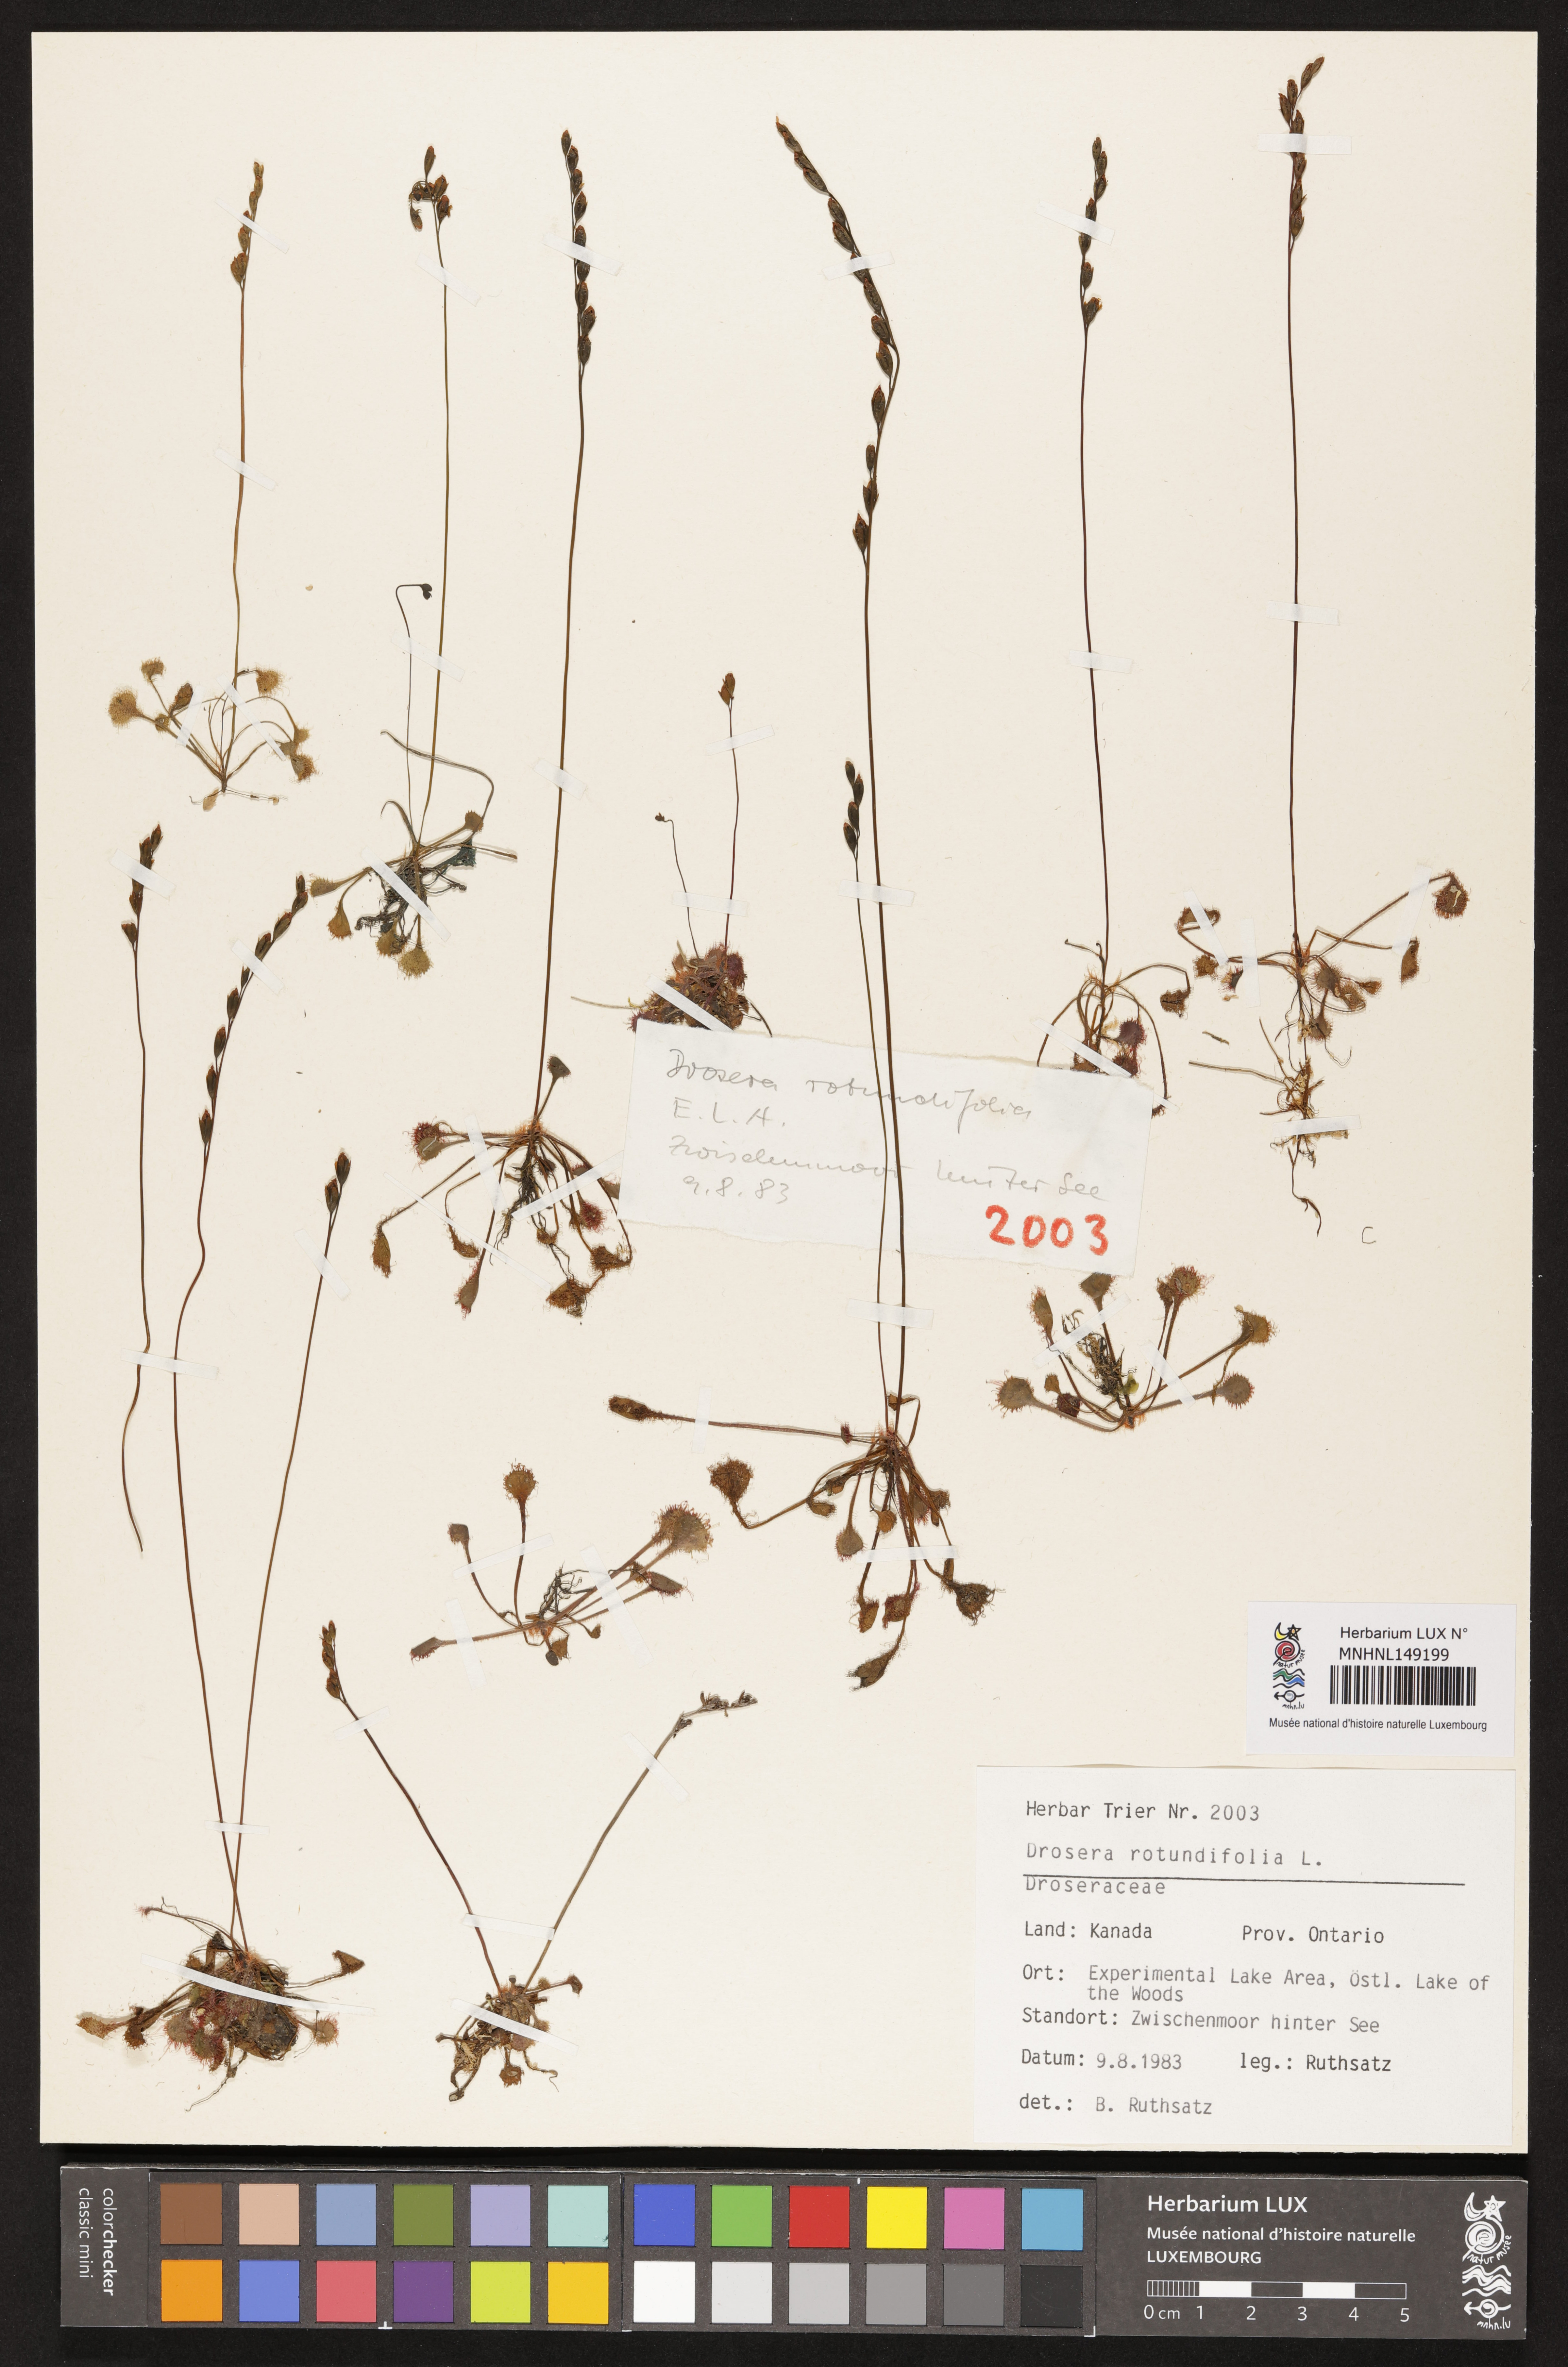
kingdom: Plantae
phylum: Tracheophyta
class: Magnoliopsida
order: Caryophyllales
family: Droseraceae
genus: Drosera
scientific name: Drosera rotundifolia
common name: Round-leaved sundew
